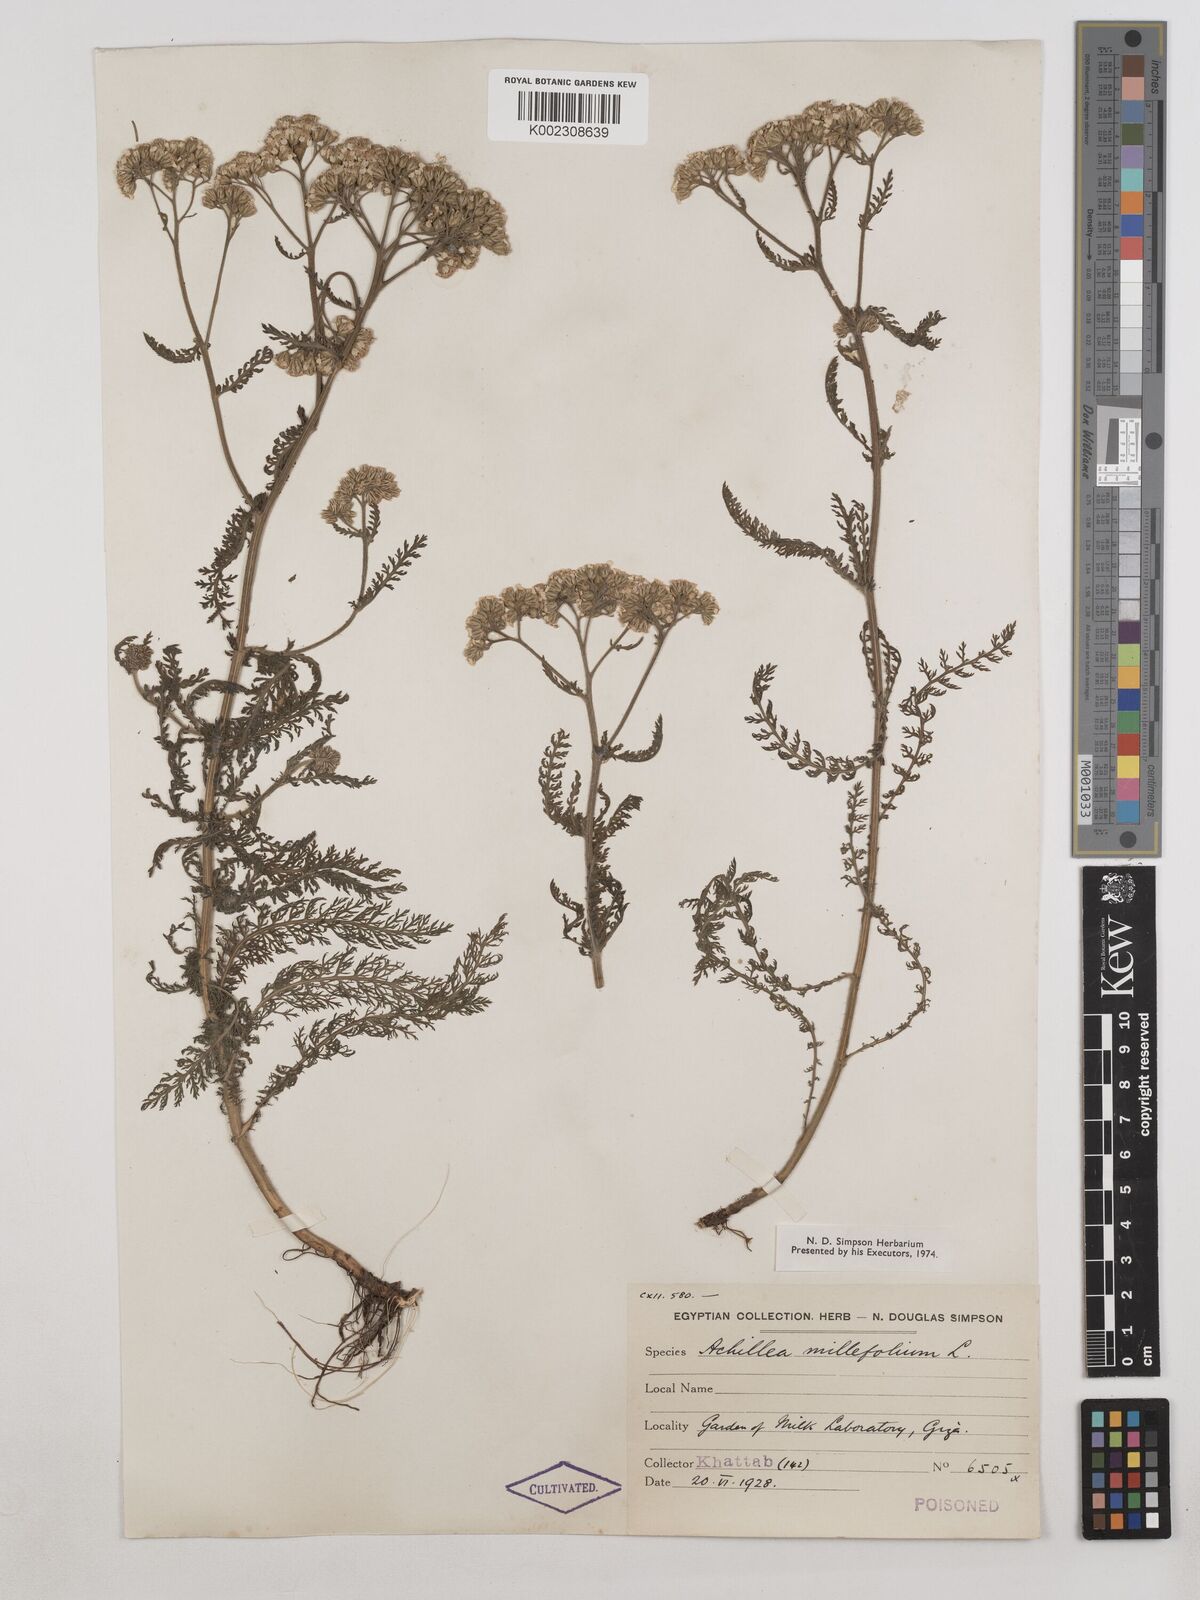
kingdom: Plantae
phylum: Tracheophyta
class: Magnoliopsida
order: Asterales
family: Asteraceae
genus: Achillea
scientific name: Achillea millefolium
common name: Yarrow
